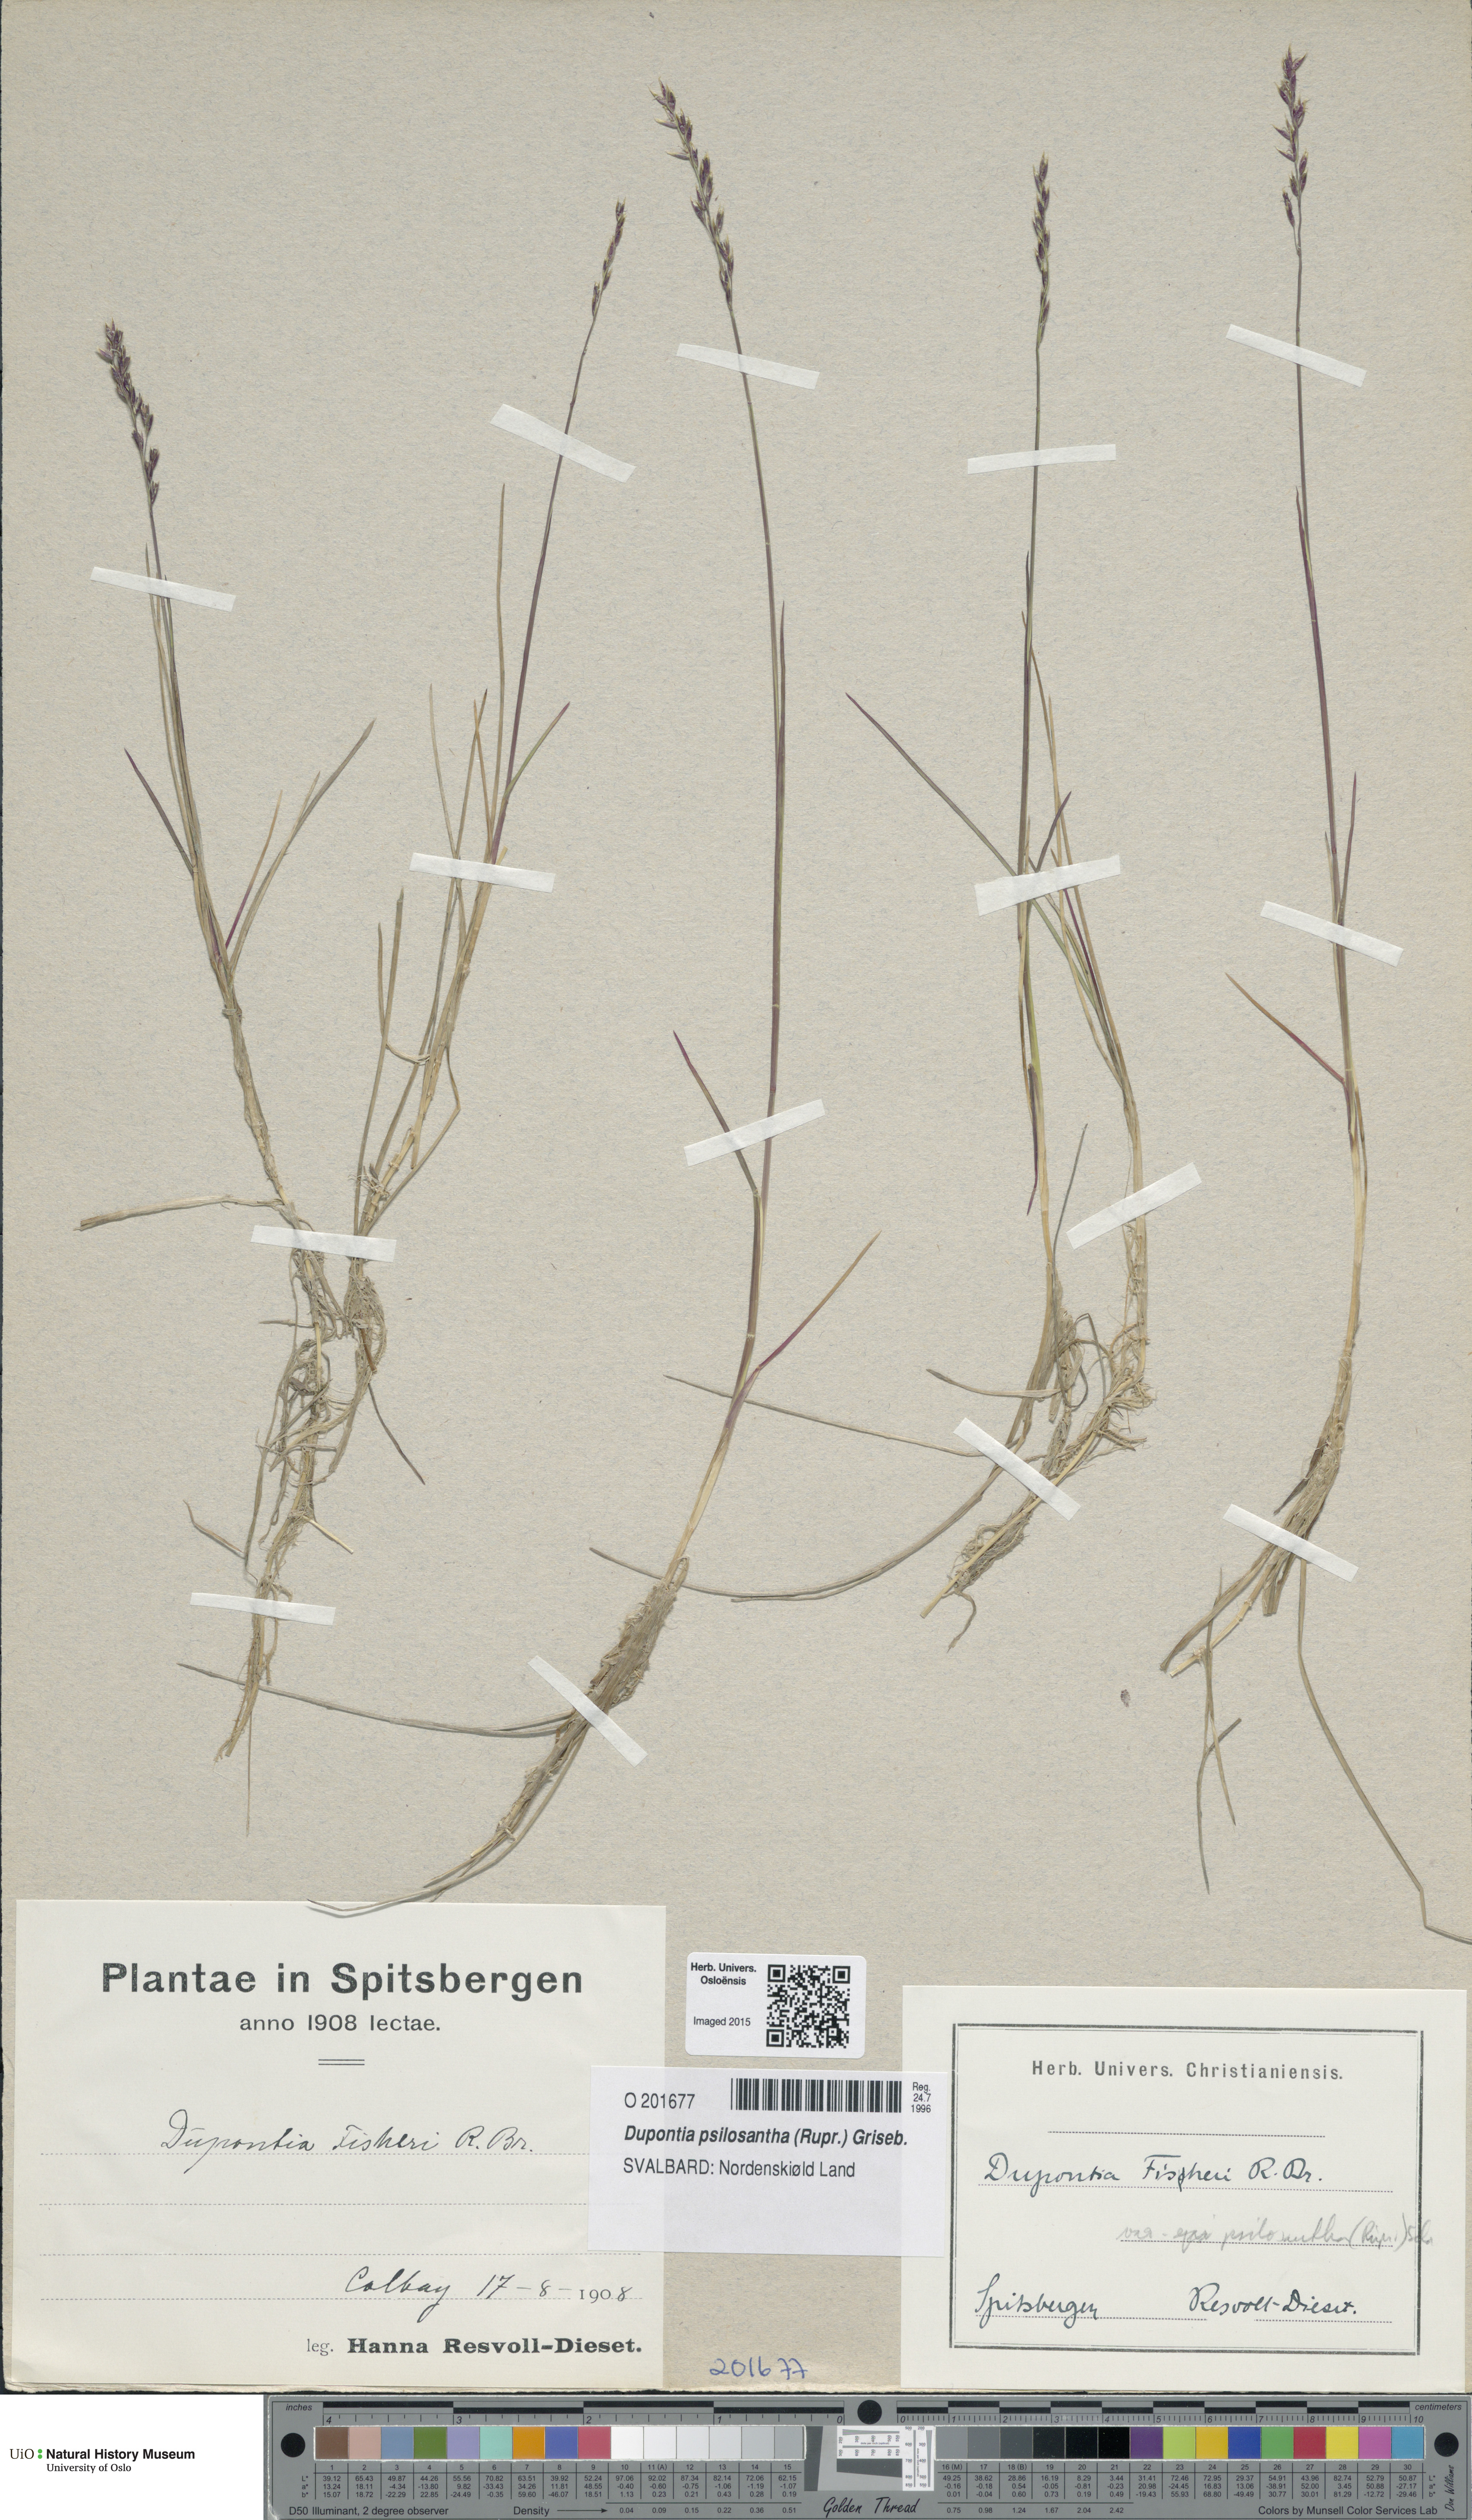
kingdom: Plantae
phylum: Tracheophyta
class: Liliopsida
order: Poales
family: Poaceae
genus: Dupontia
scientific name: Dupontia fisheri
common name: Tundra grass
